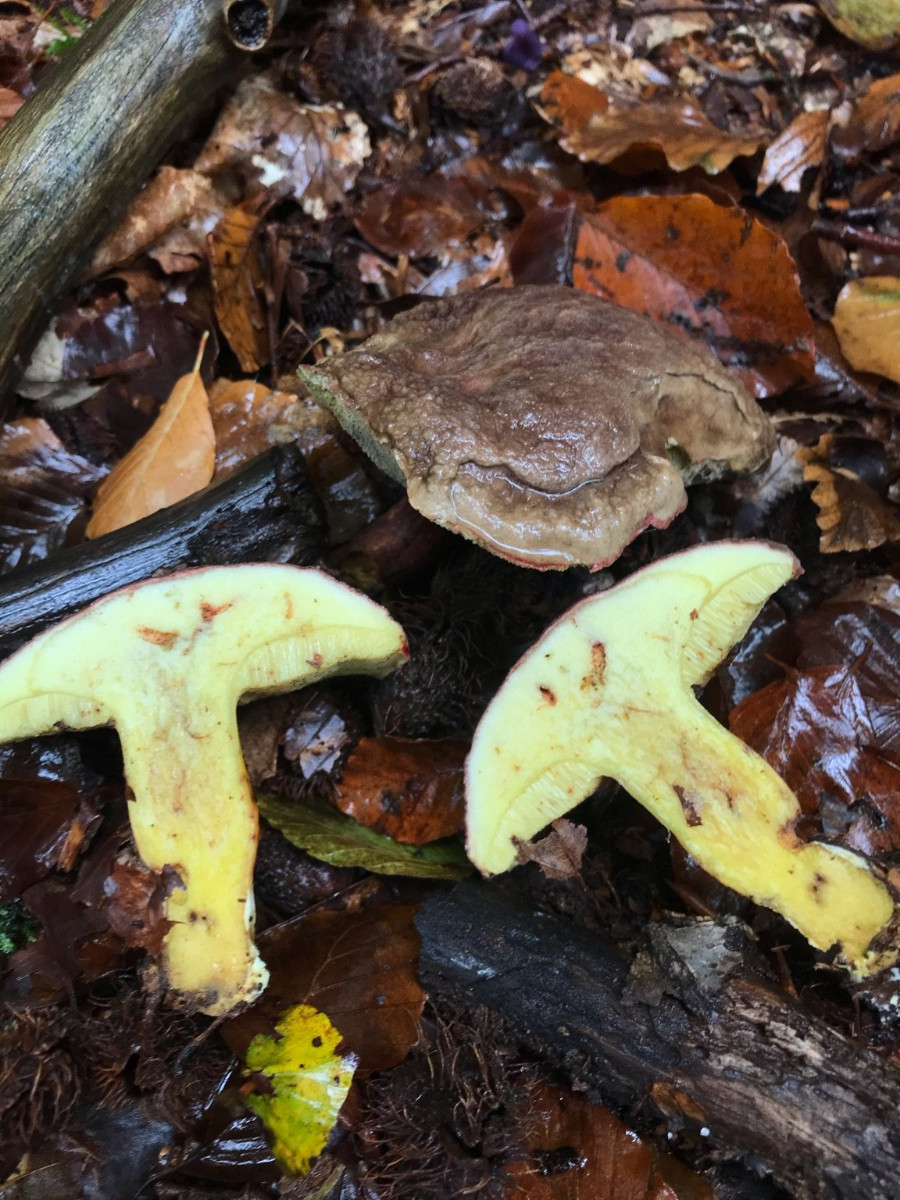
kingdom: Fungi
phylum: Basidiomycota
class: Agaricomycetes
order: Boletales
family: Boletaceae
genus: Xerocomellus
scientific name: Xerocomellus pruinatus
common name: dugget rørhat
